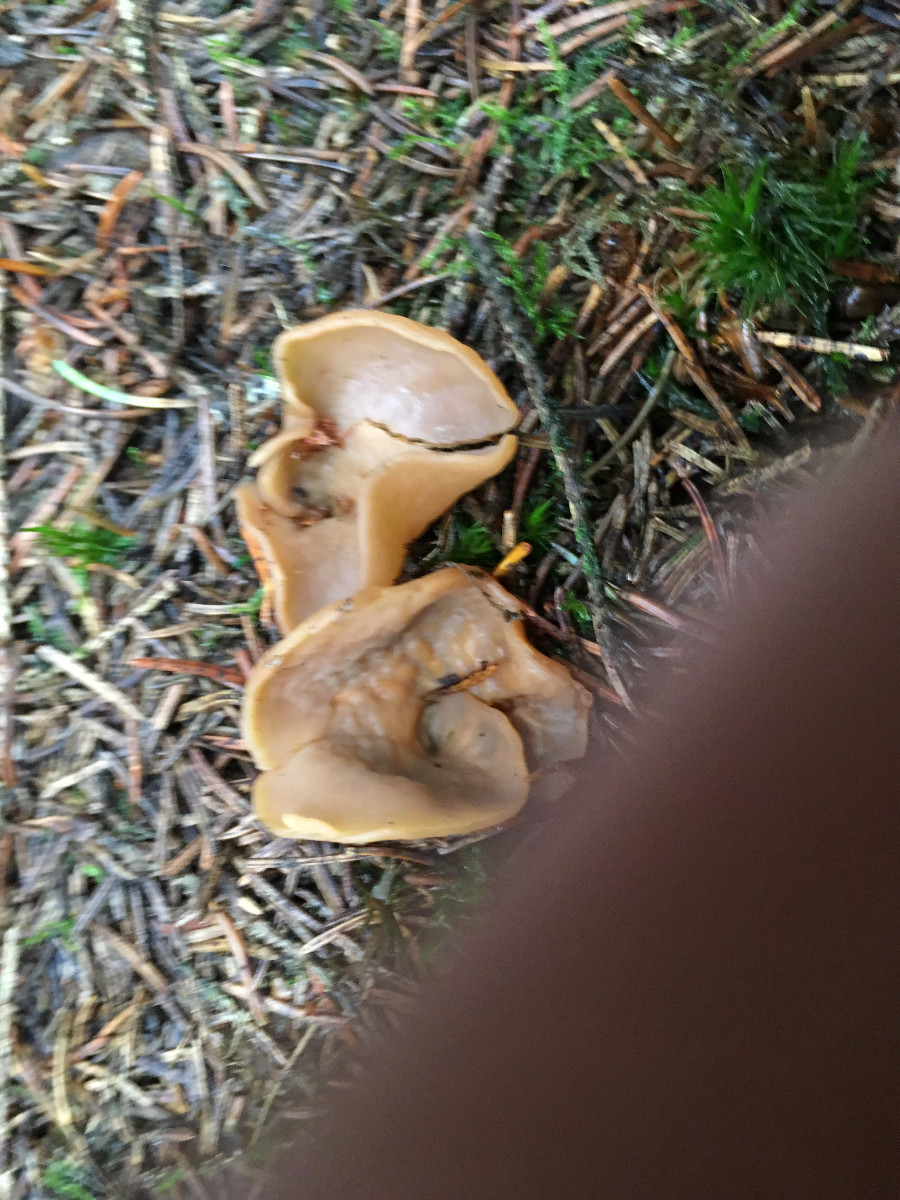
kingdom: Fungi
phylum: Ascomycota
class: Pezizomycetes
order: Pezizales
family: Otideaceae
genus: Otidea
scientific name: Otidea
